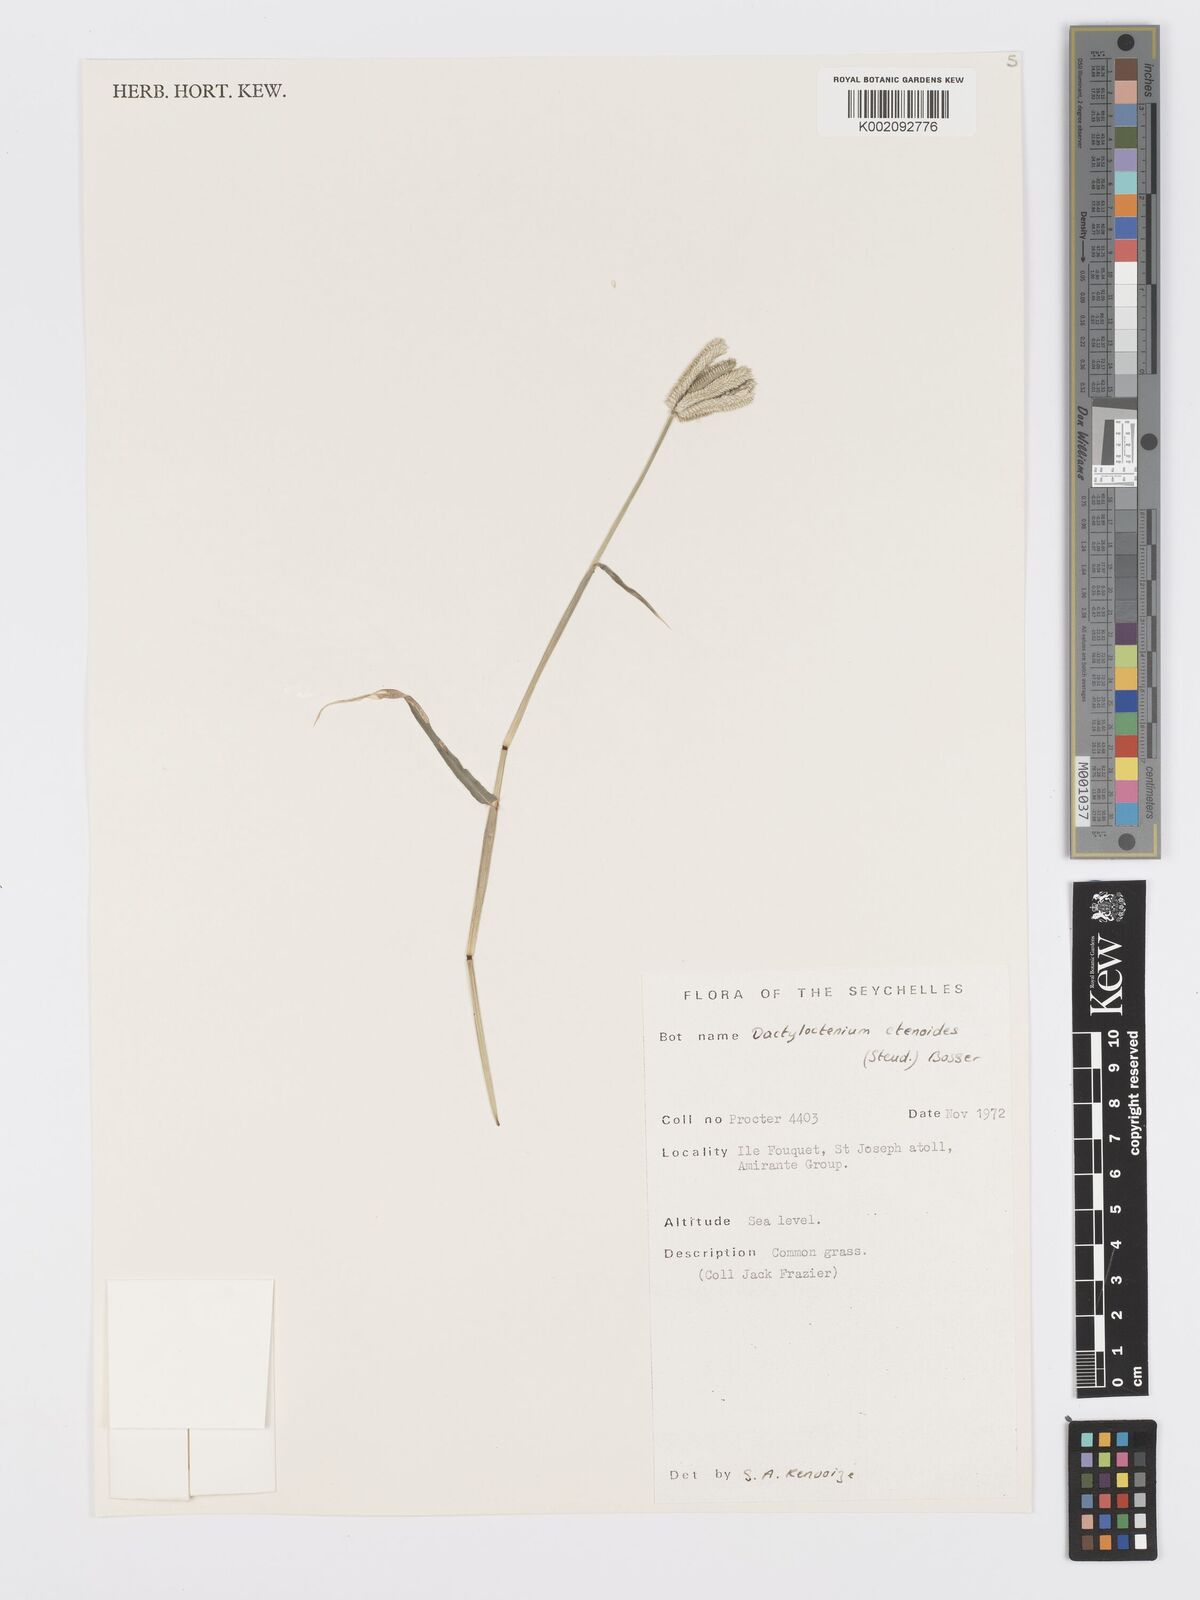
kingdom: Plantae
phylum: Tracheophyta
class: Liliopsida
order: Poales
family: Poaceae
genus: Dactyloctenium
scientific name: Dactyloctenium ctenoides
